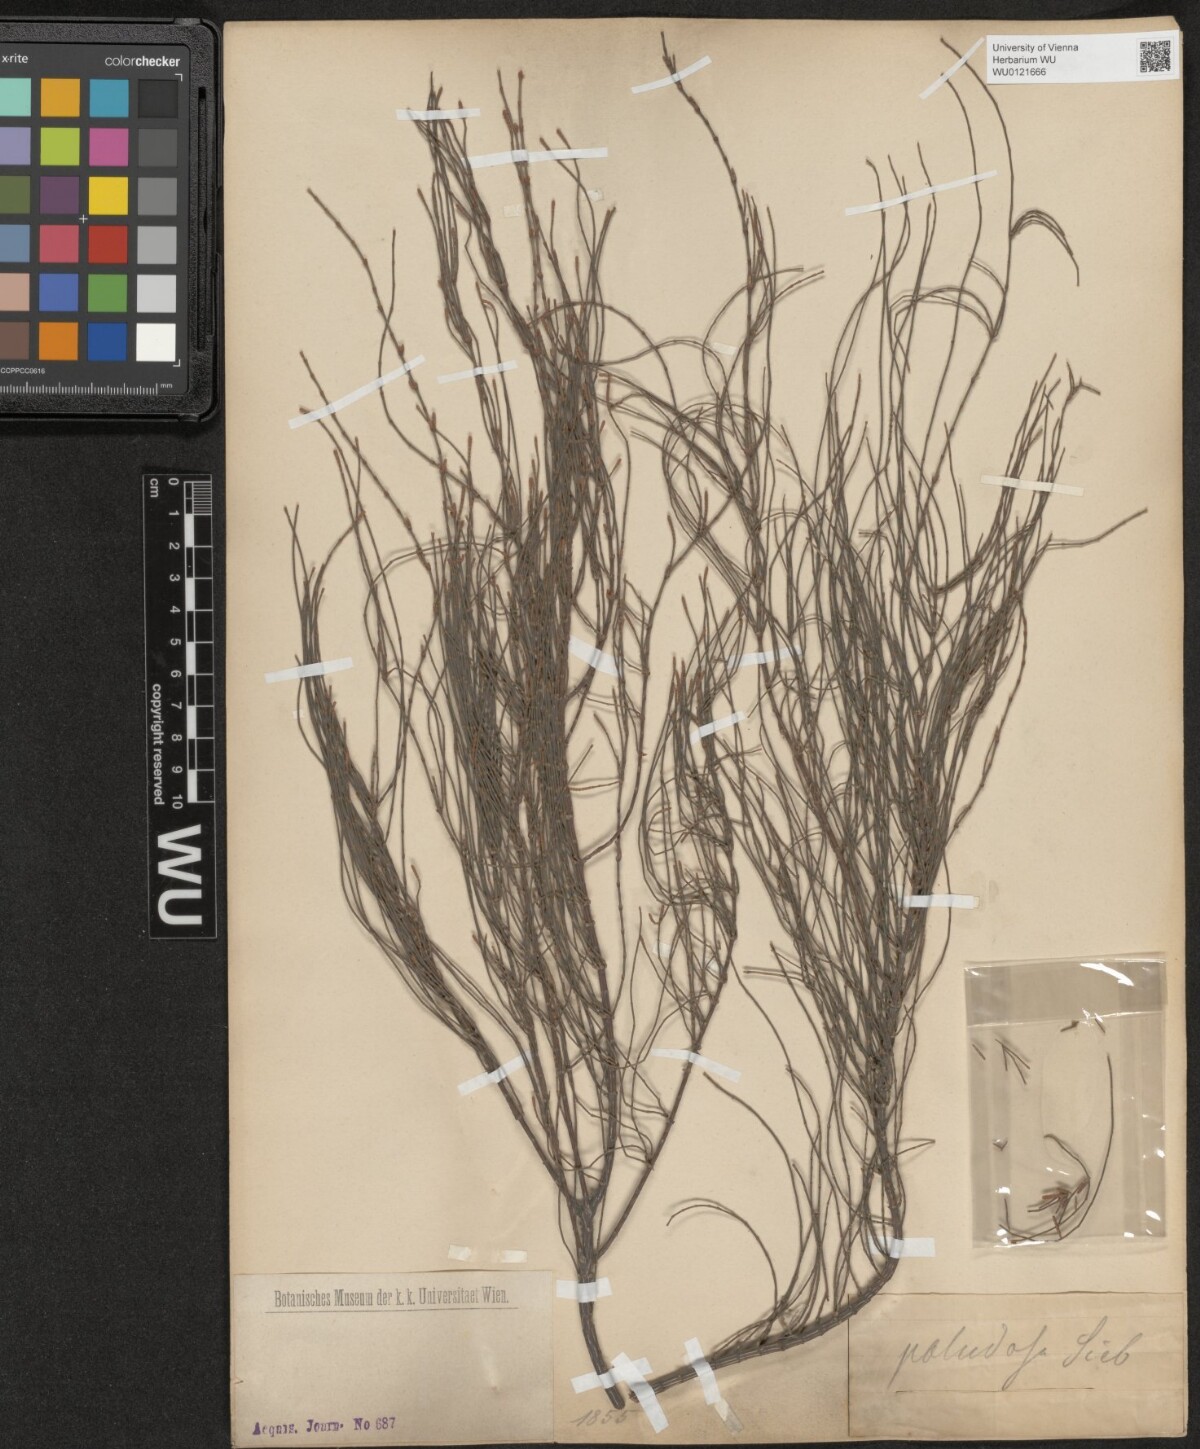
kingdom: Plantae
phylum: Tracheophyta
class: Magnoliopsida
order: Fagales
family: Casuarinaceae
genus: Allocasuarina
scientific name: Allocasuarina paludosa
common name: Scrub she-oak
